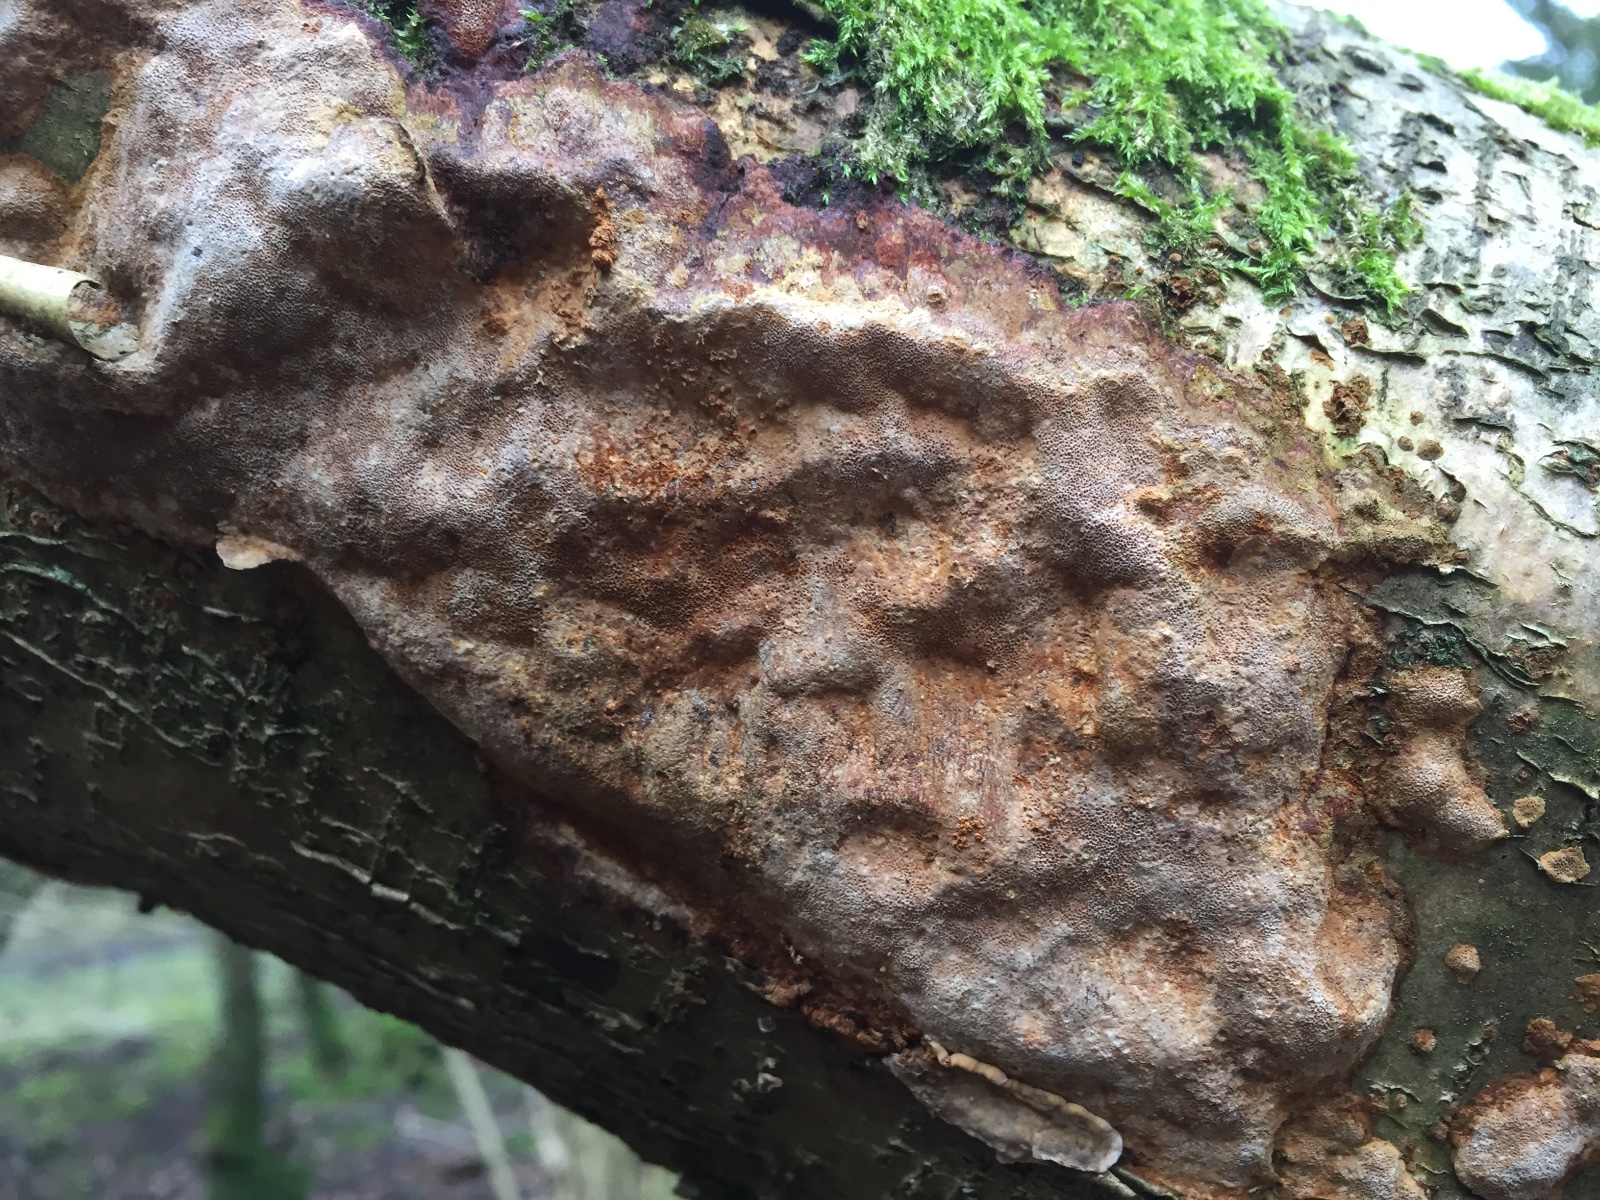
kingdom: Fungi
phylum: Basidiomycota
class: Agaricomycetes
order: Hymenochaetales
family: Hymenochaetaceae
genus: Fuscoporia
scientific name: Fuscoporia ferrea
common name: skorpe-ildporesvamp
